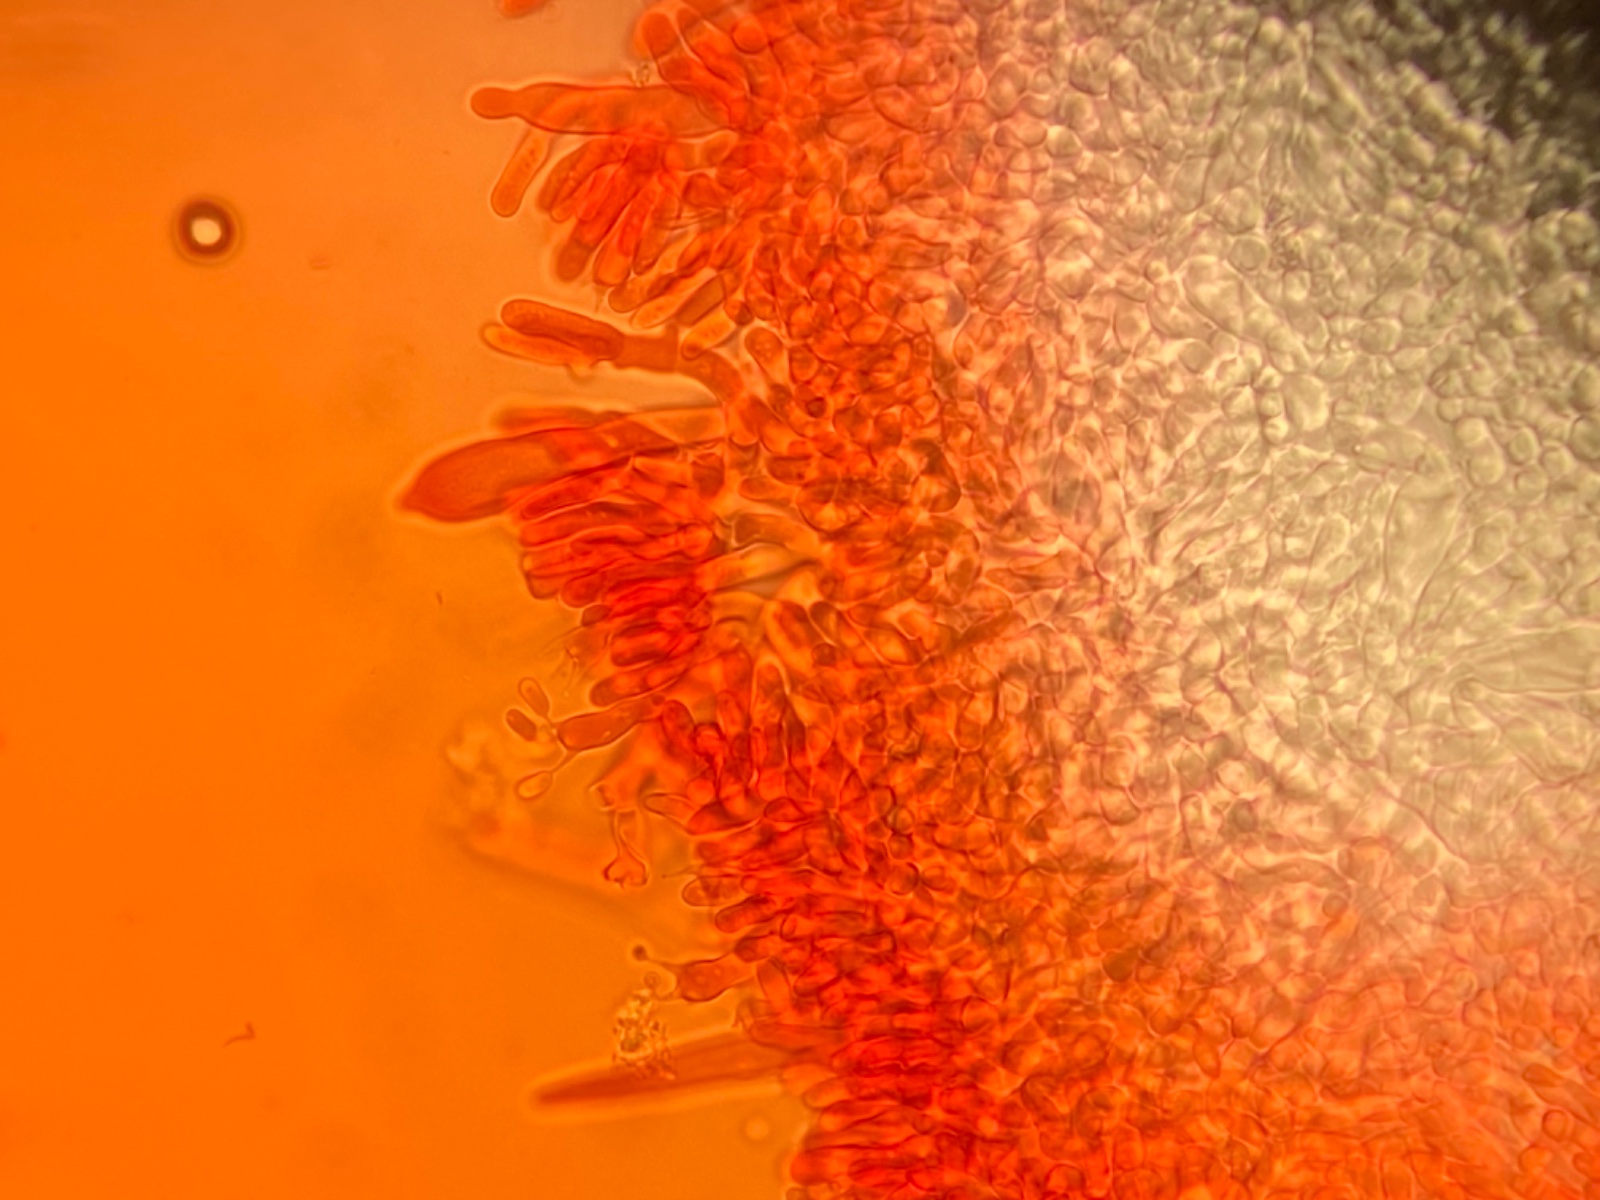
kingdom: Fungi
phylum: Basidiomycota
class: Agaricomycetes
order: Polyporales
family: Phanerochaetaceae
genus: Phanerochaete
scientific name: Phanerochaete sordida
